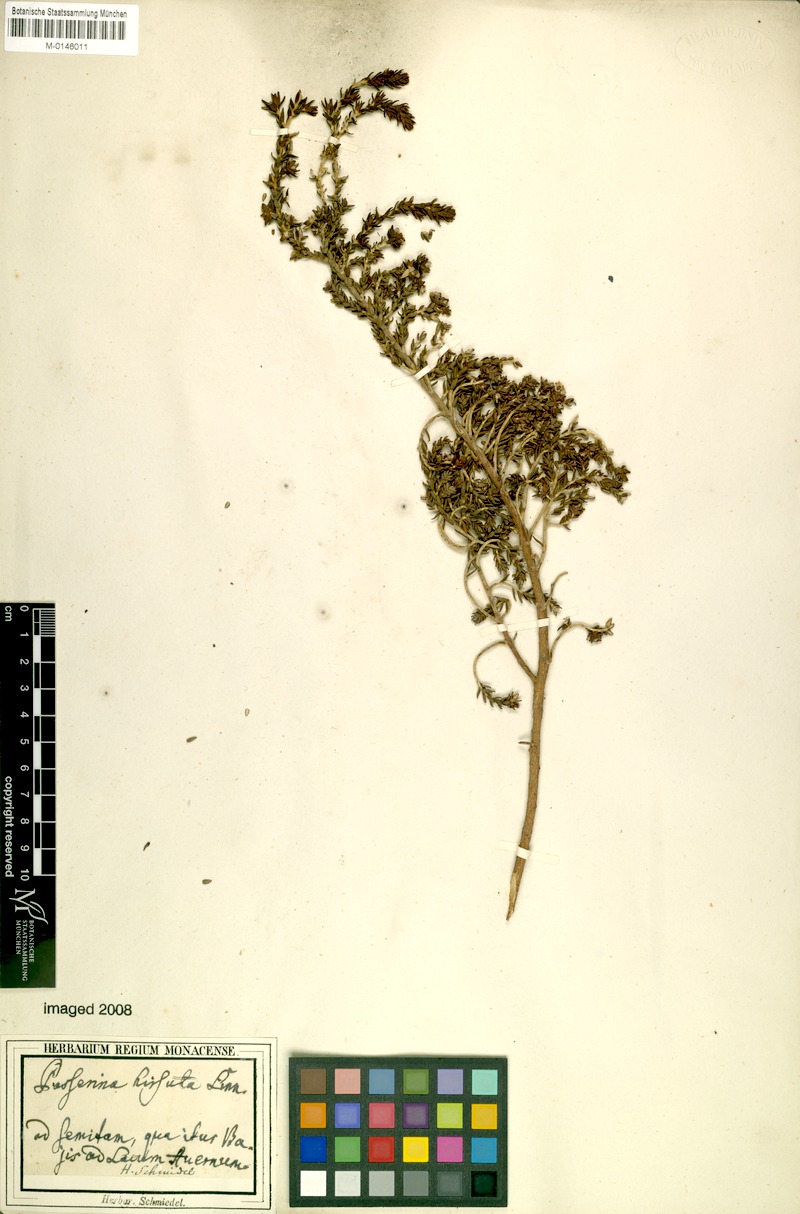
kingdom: Plantae
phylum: Tracheophyta
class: Magnoliopsida
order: Malvales
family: Thymelaeaceae
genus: Thymelaea
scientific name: Thymelaea hirsuta
